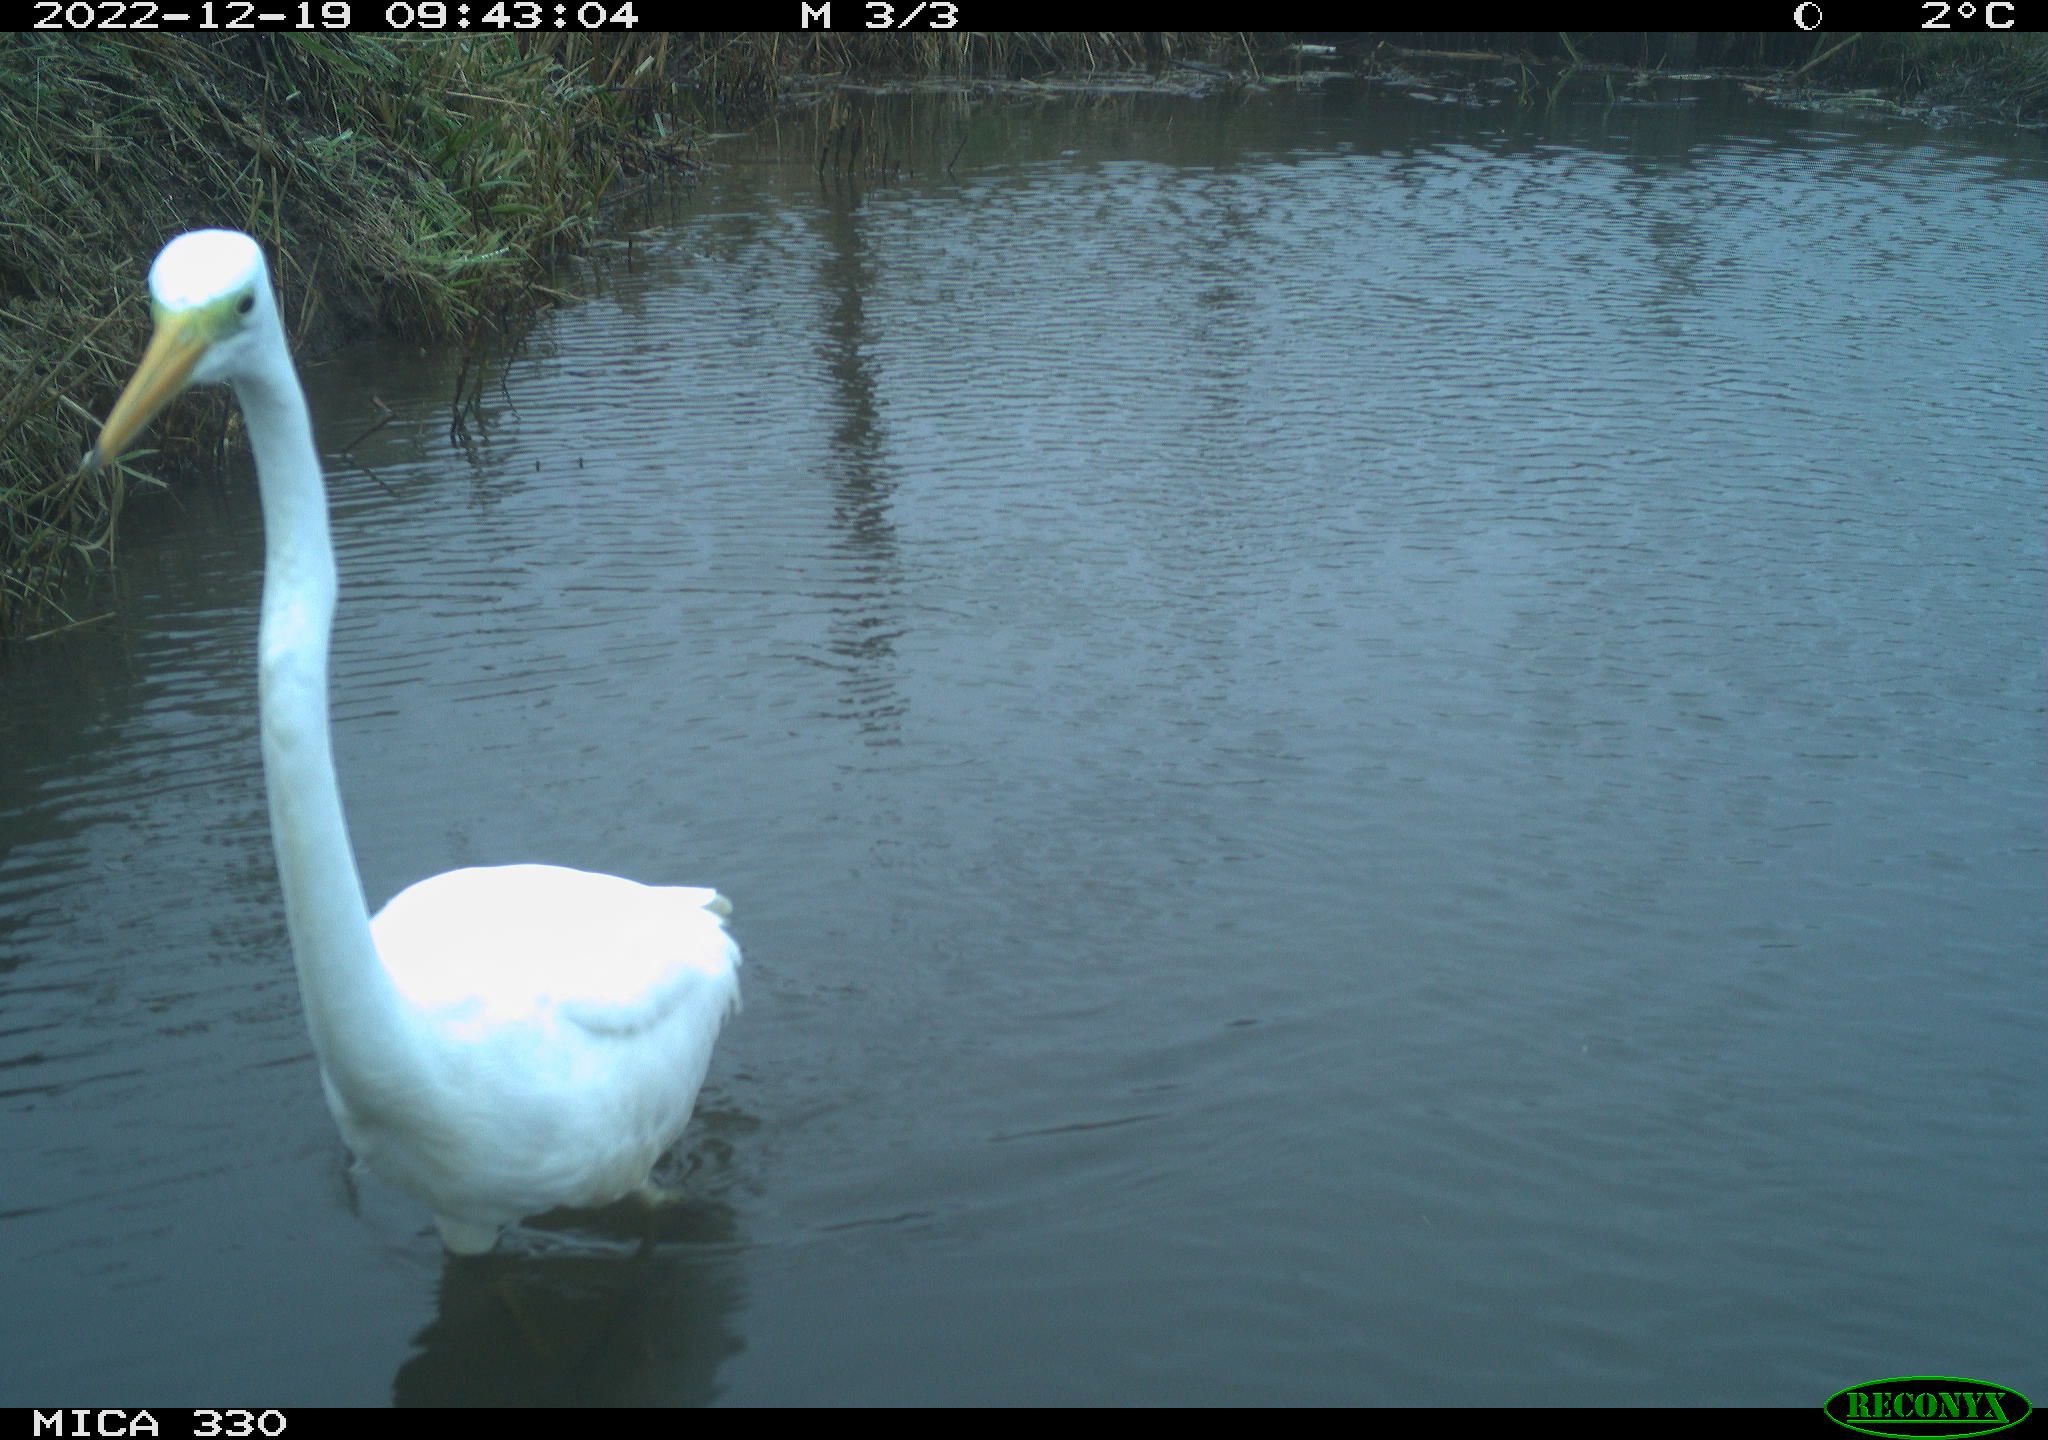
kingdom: Animalia
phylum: Chordata
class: Aves
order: Pelecaniformes
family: Ardeidae
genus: Ardea
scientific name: Ardea alba
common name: Great egret
